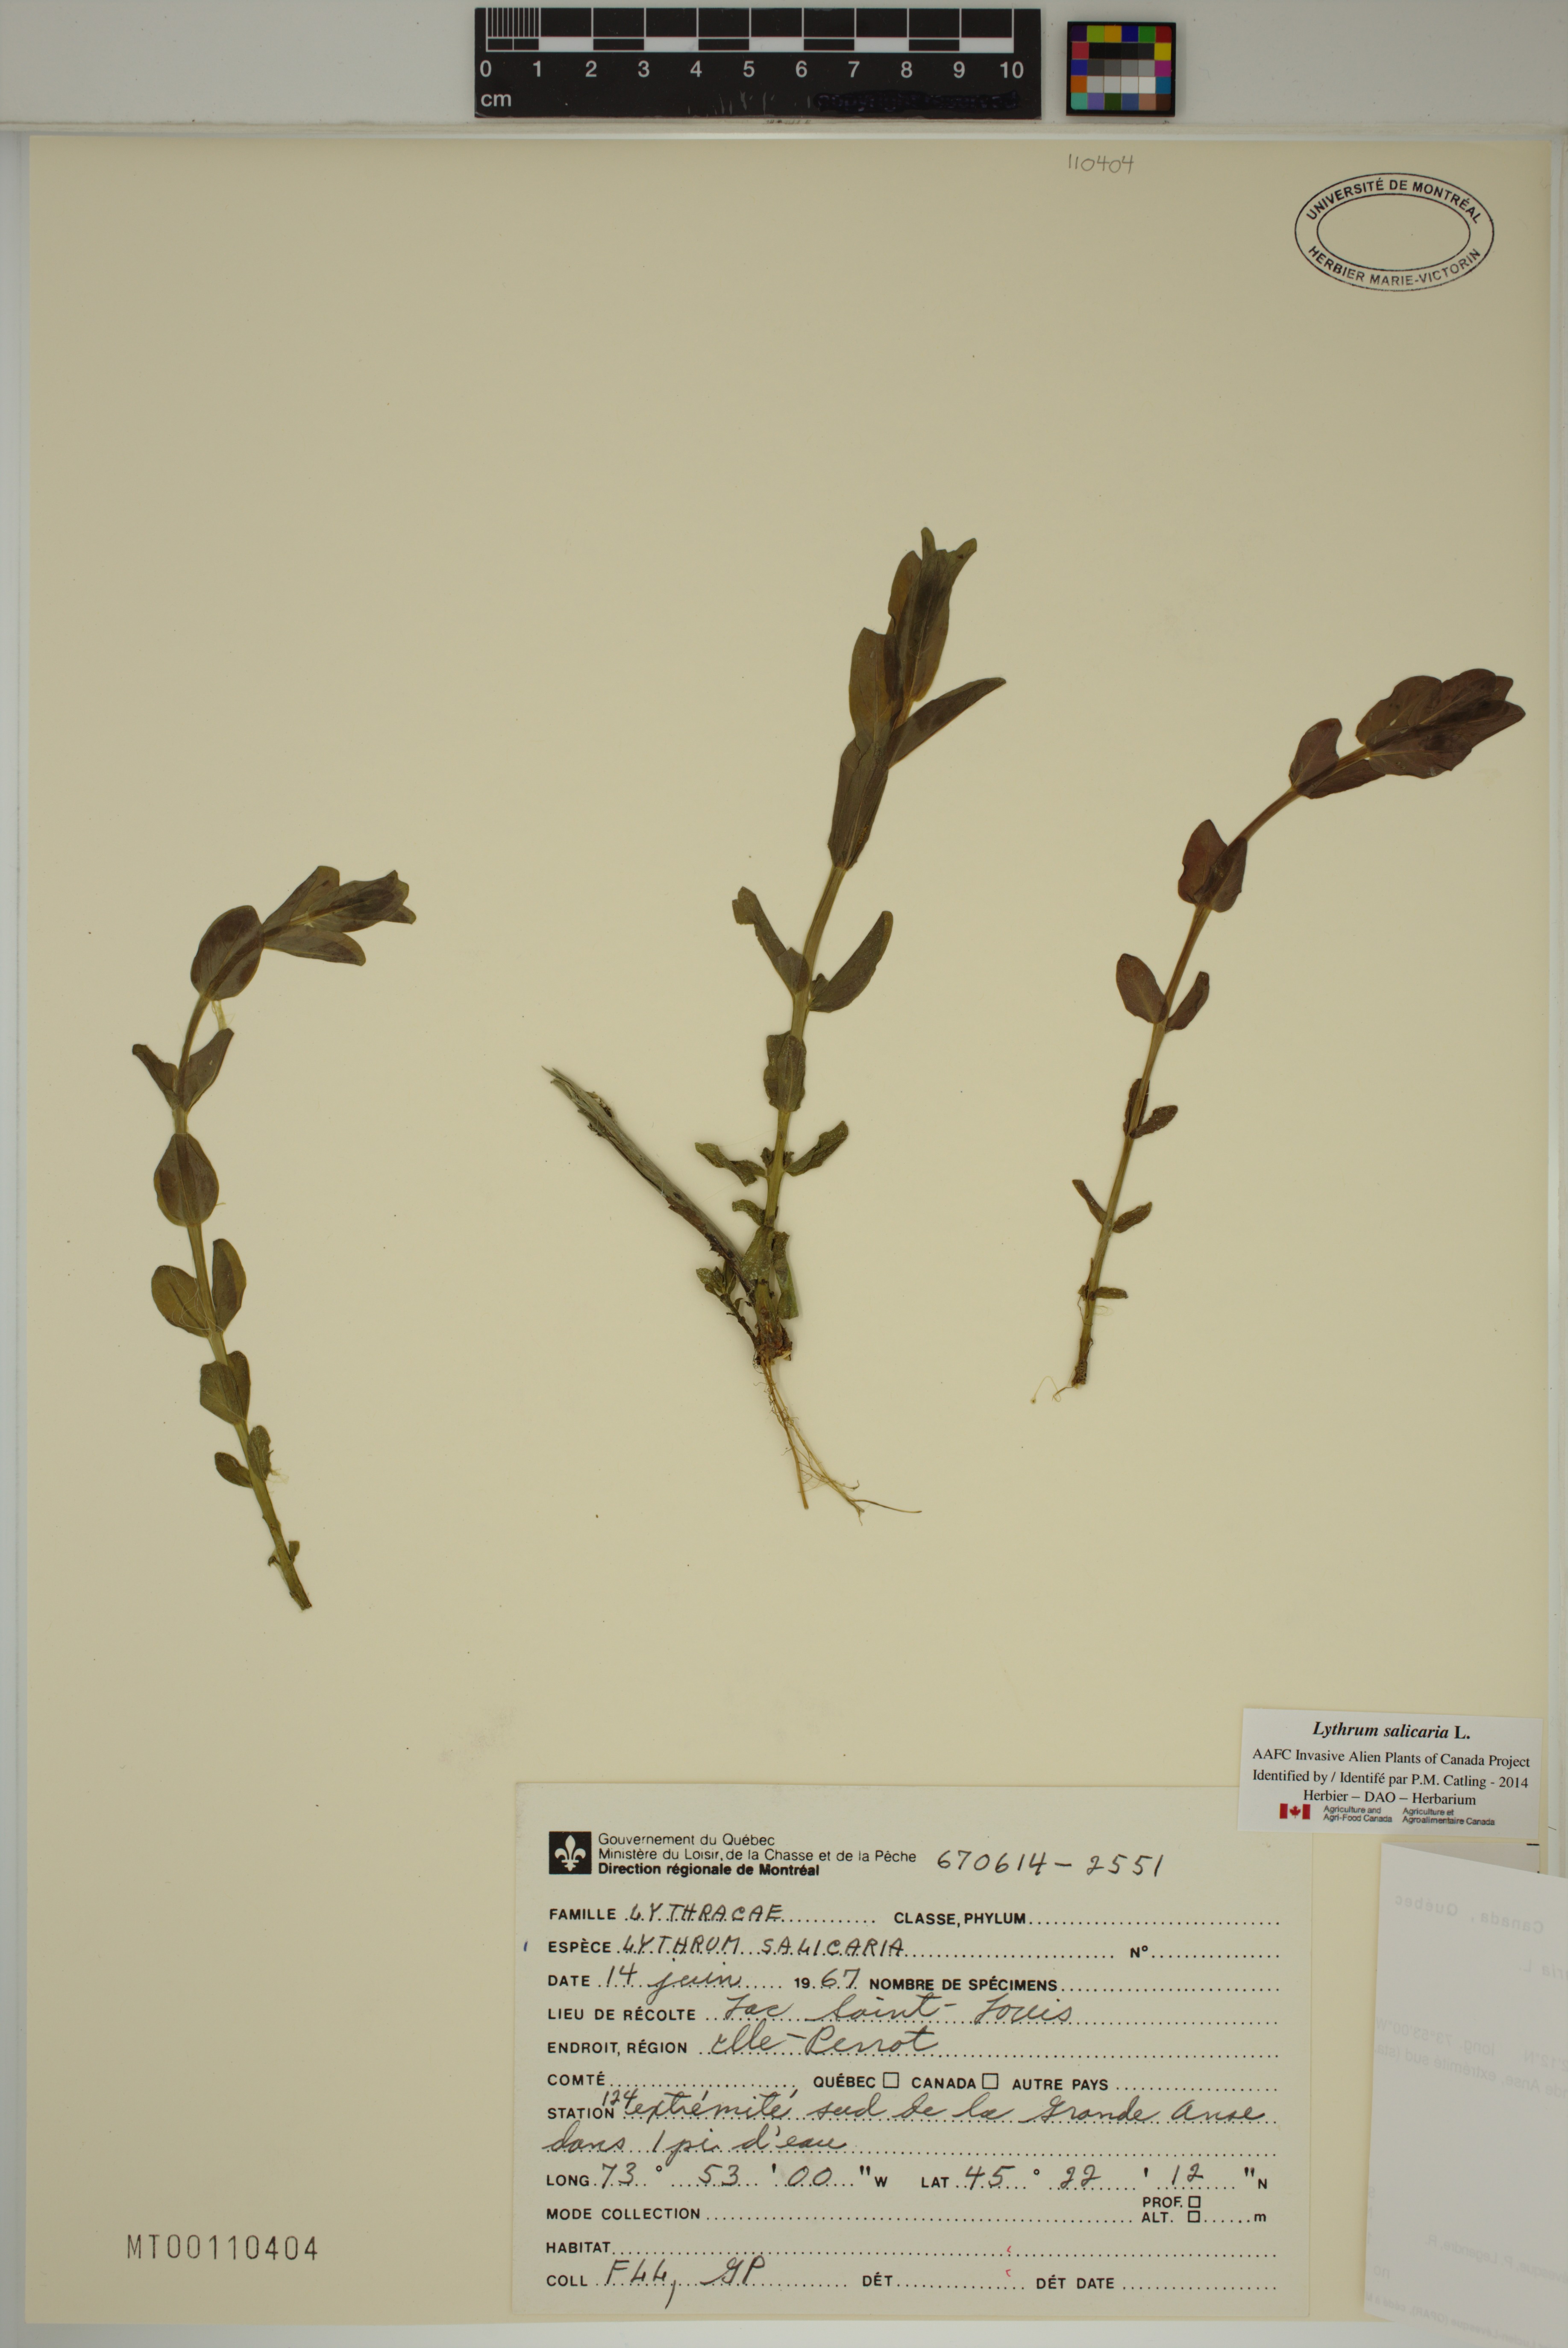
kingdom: Plantae
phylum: Tracheophyta
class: Magnoliopsida
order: Myrtales
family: Lythraceae
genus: Lythrum
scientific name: Lythrum salicaria
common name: Purple loosestrife
